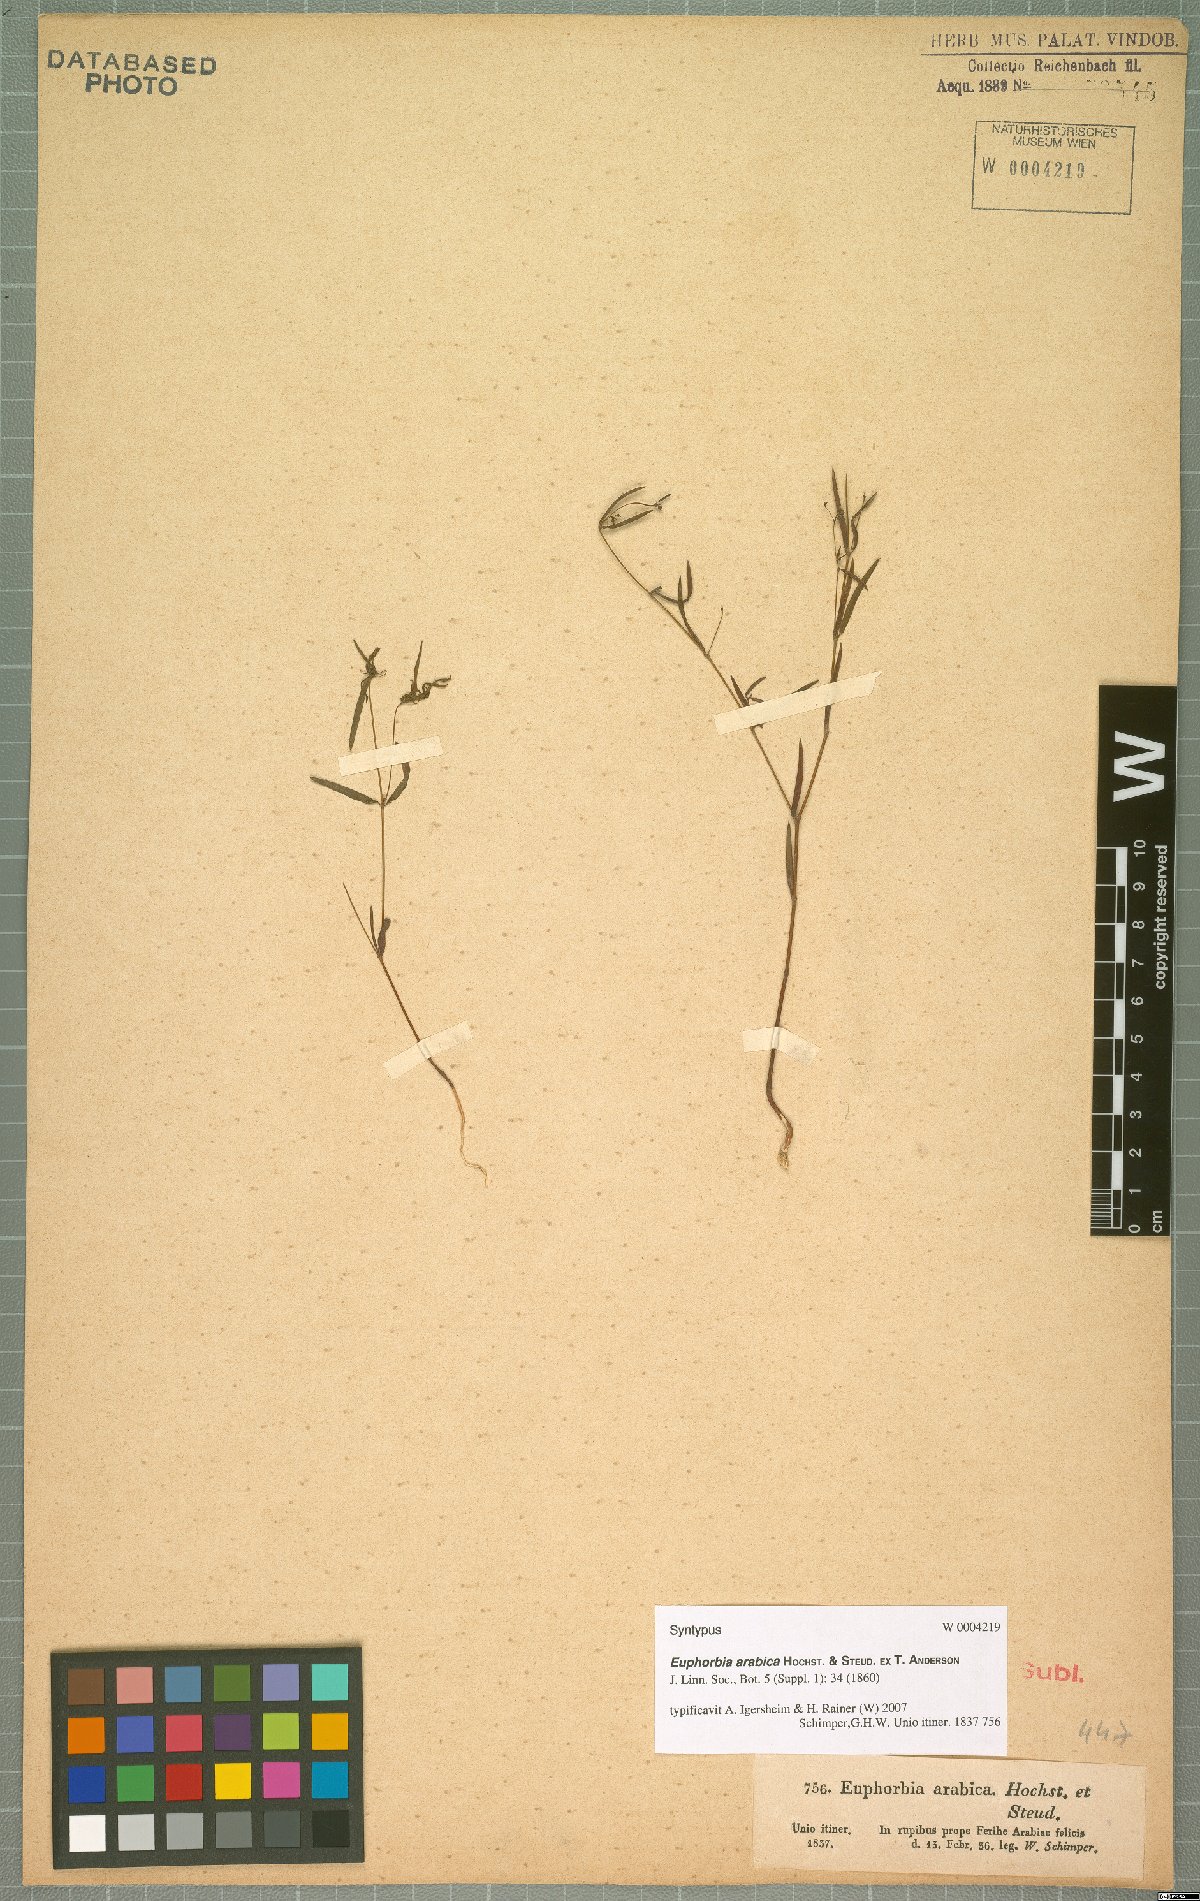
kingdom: Plantae
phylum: Tracheophyta
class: Magnoliopsida
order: Malpighiales
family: Euphorbiaceae
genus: Euphorbia
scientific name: Euphorbia arabica
